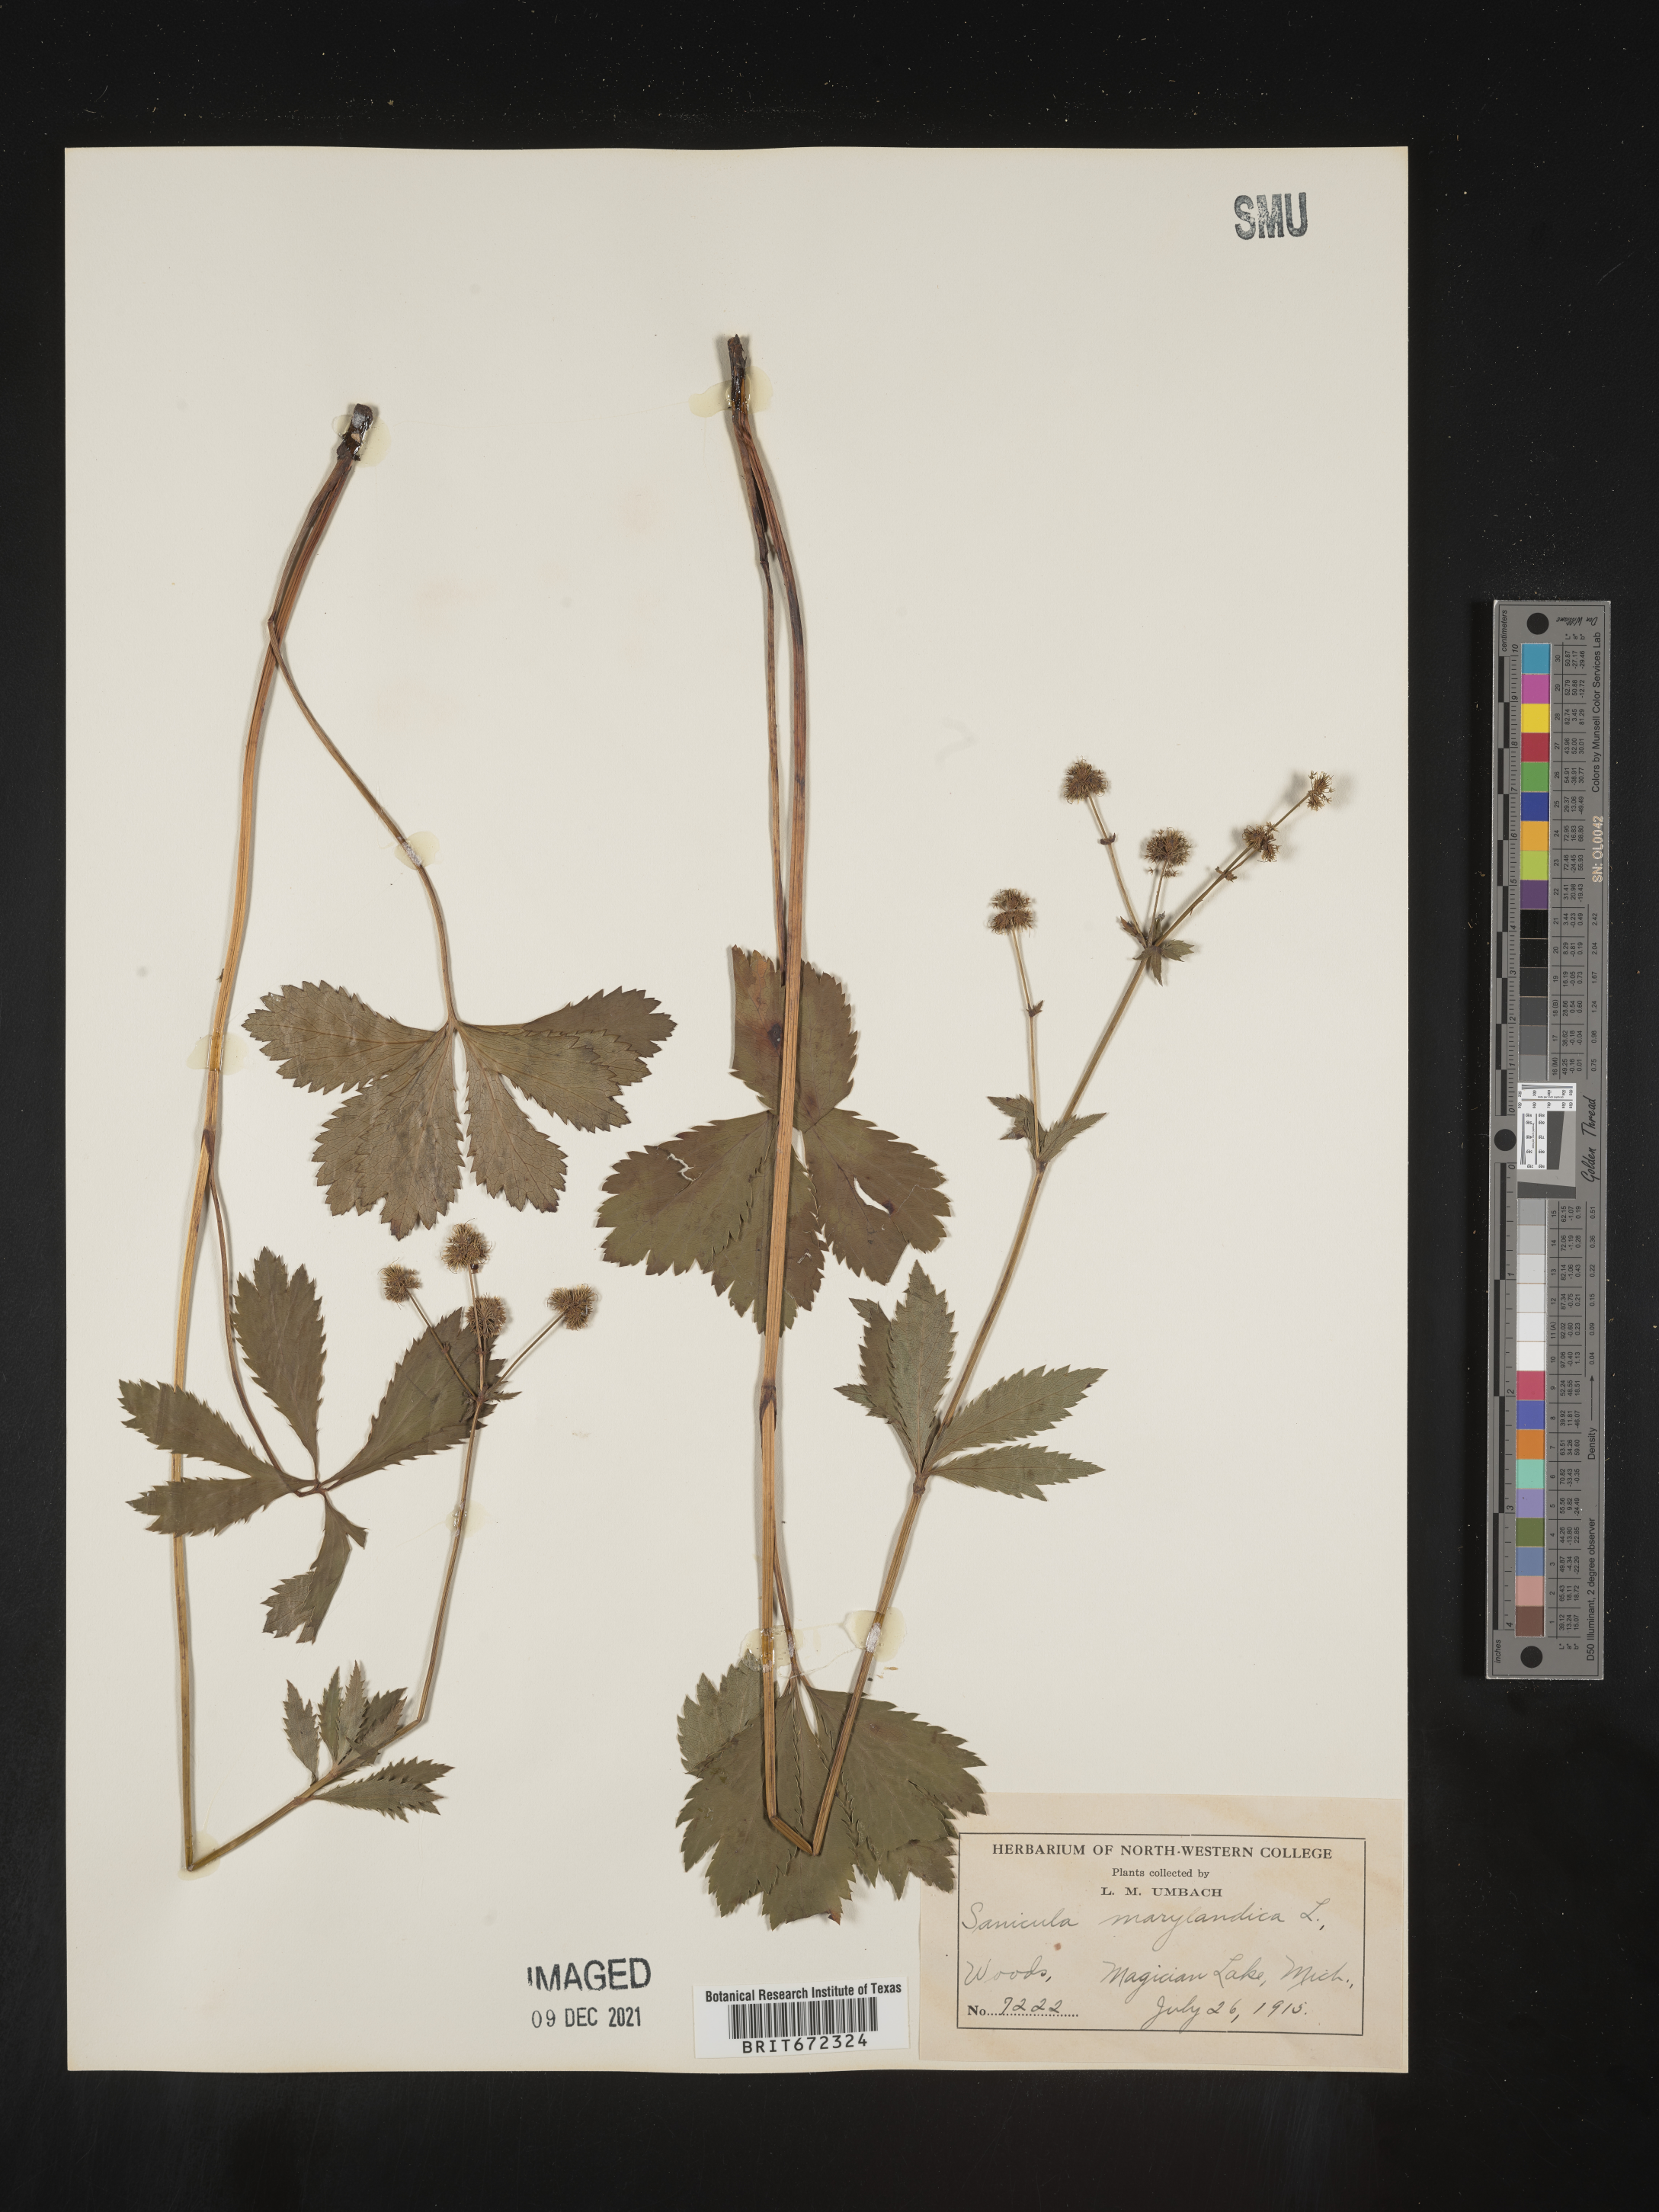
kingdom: Plantae
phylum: Tracheophyta
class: Magnoliopsida
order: Apiales
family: Apiaceae
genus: Sanicula
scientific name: Sanicula marilandica
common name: Black snakeroot
